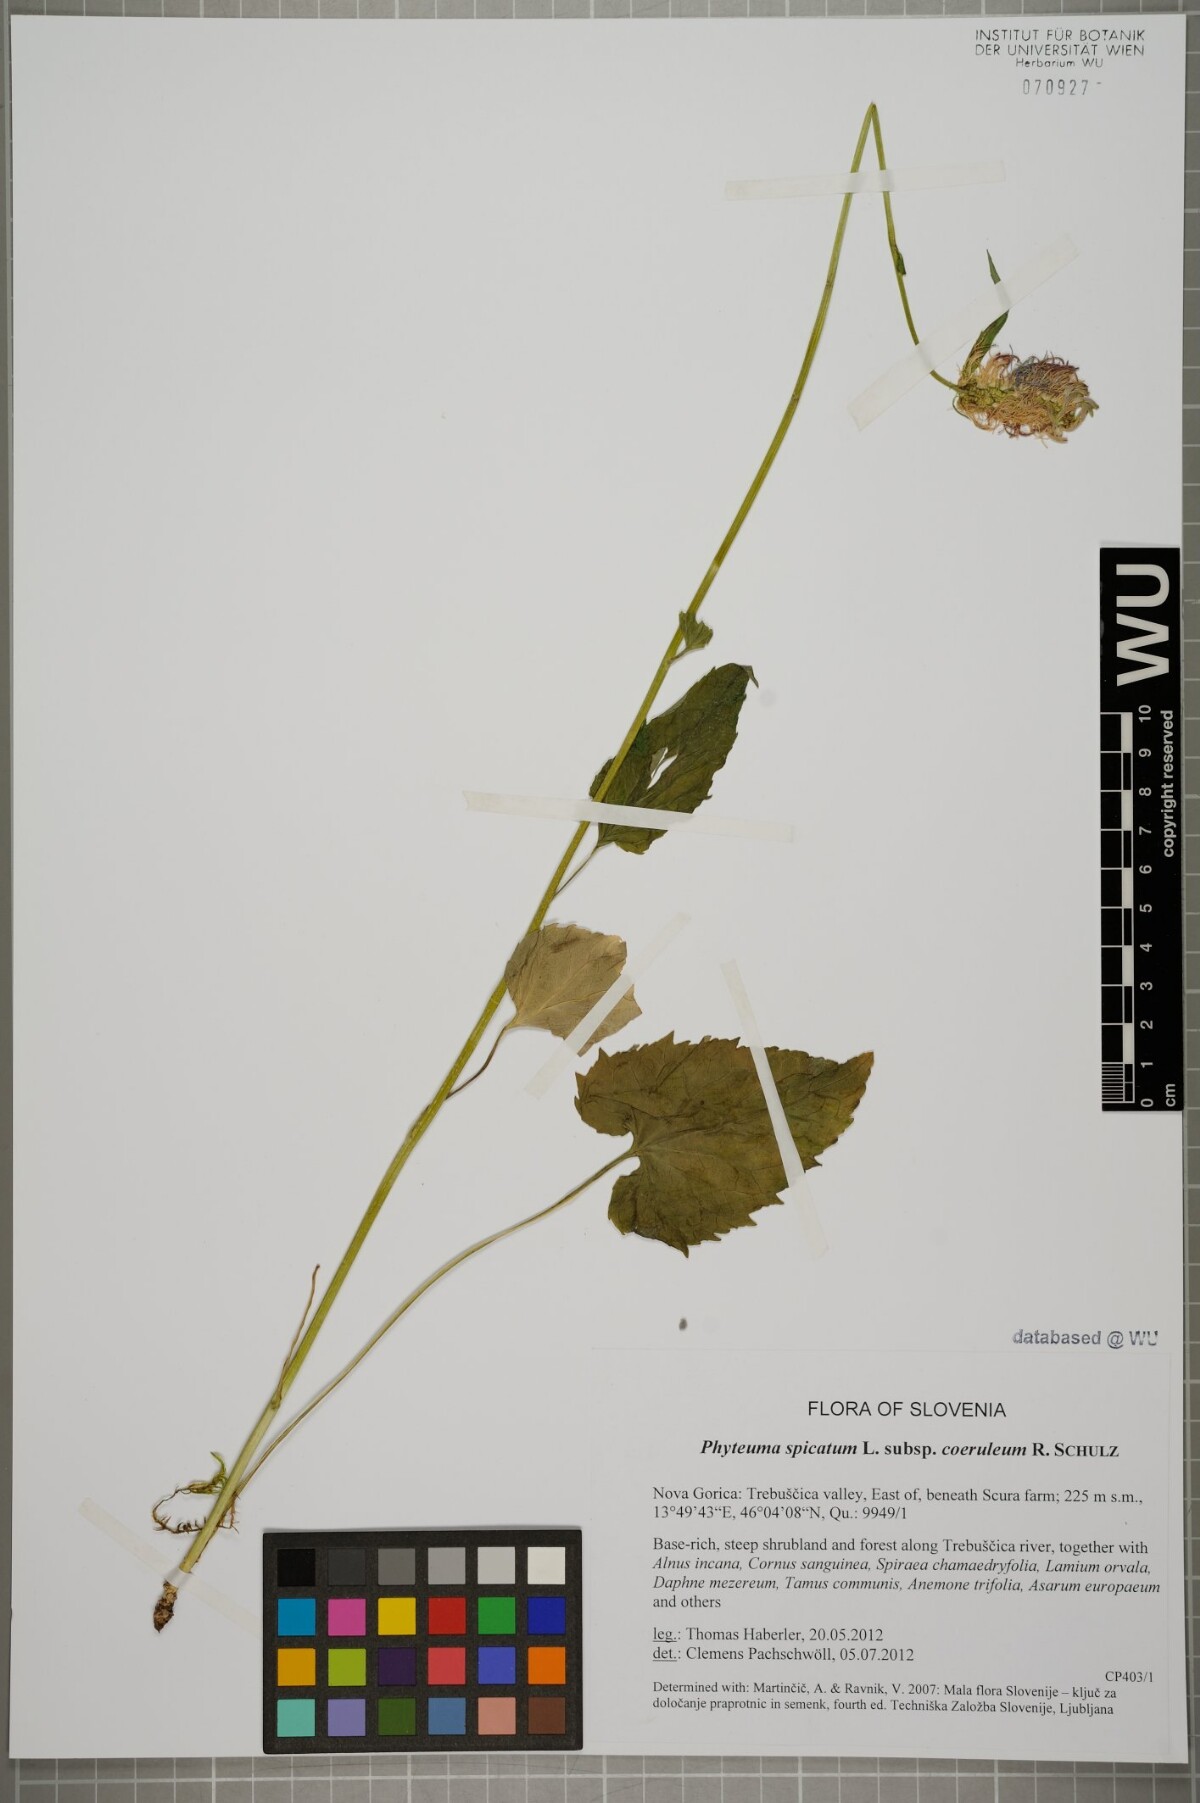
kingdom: Plantae
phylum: Tracheophyta
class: Magnoliopsida
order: Asterales
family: Campanulaceae
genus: Phyteuma
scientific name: Phyteuma spicatum
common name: Spiked rampion
